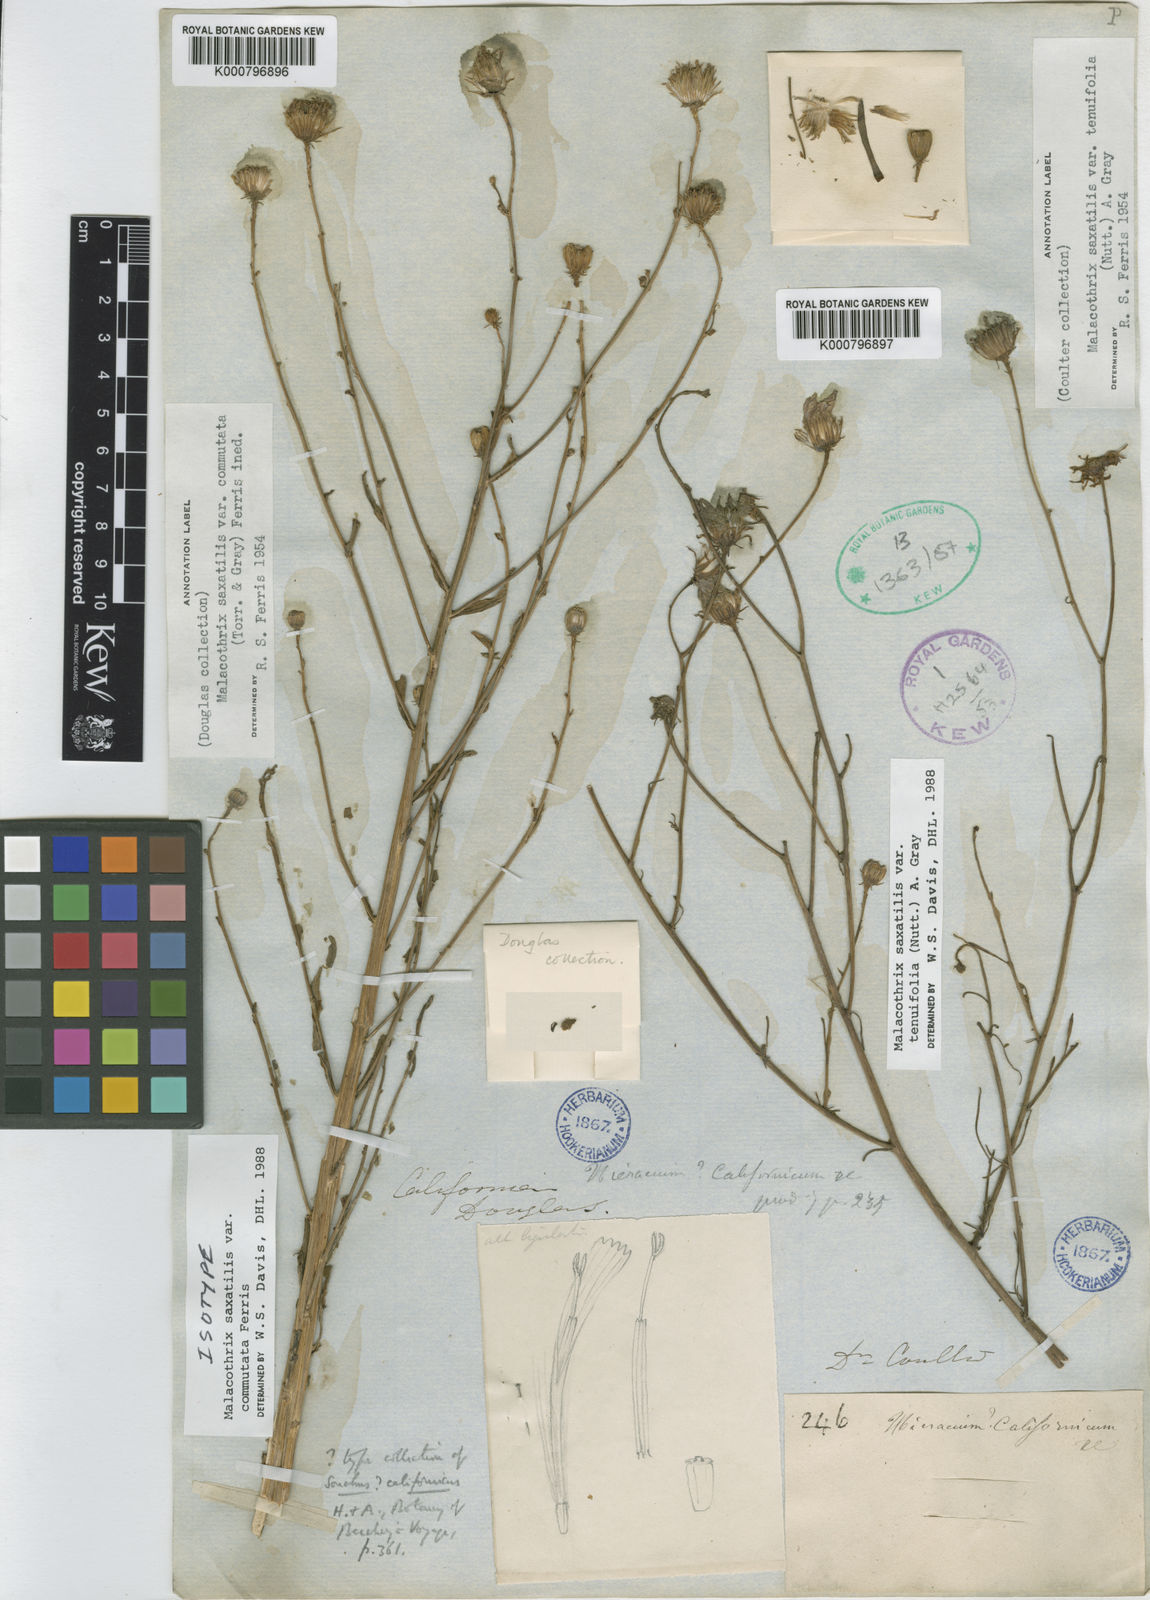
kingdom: Plantae
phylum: Tracheophyta
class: Magnoliopsida
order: Asterales
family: Asteraceae
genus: Malacothrix
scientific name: Malacothrix saxatilis
